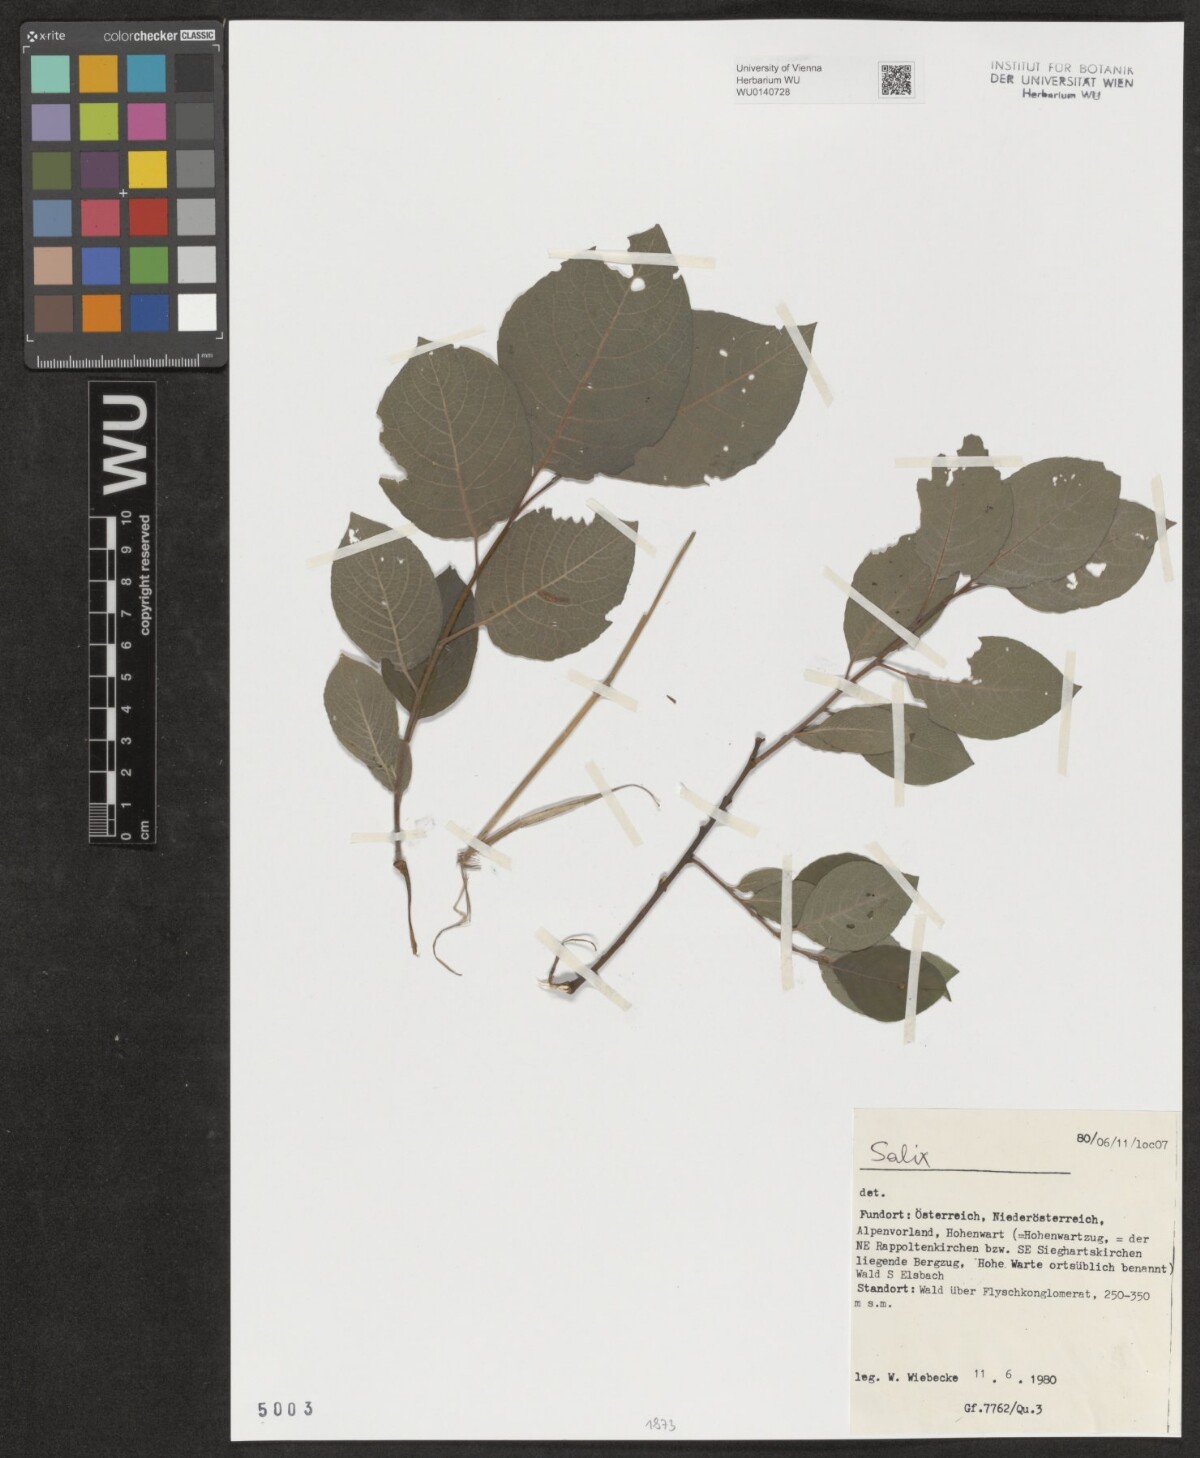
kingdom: Plantae
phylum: Tracheophyta
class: Magnoliopsida
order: Malpighiales
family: Salicaceae
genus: Salix
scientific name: Salix
